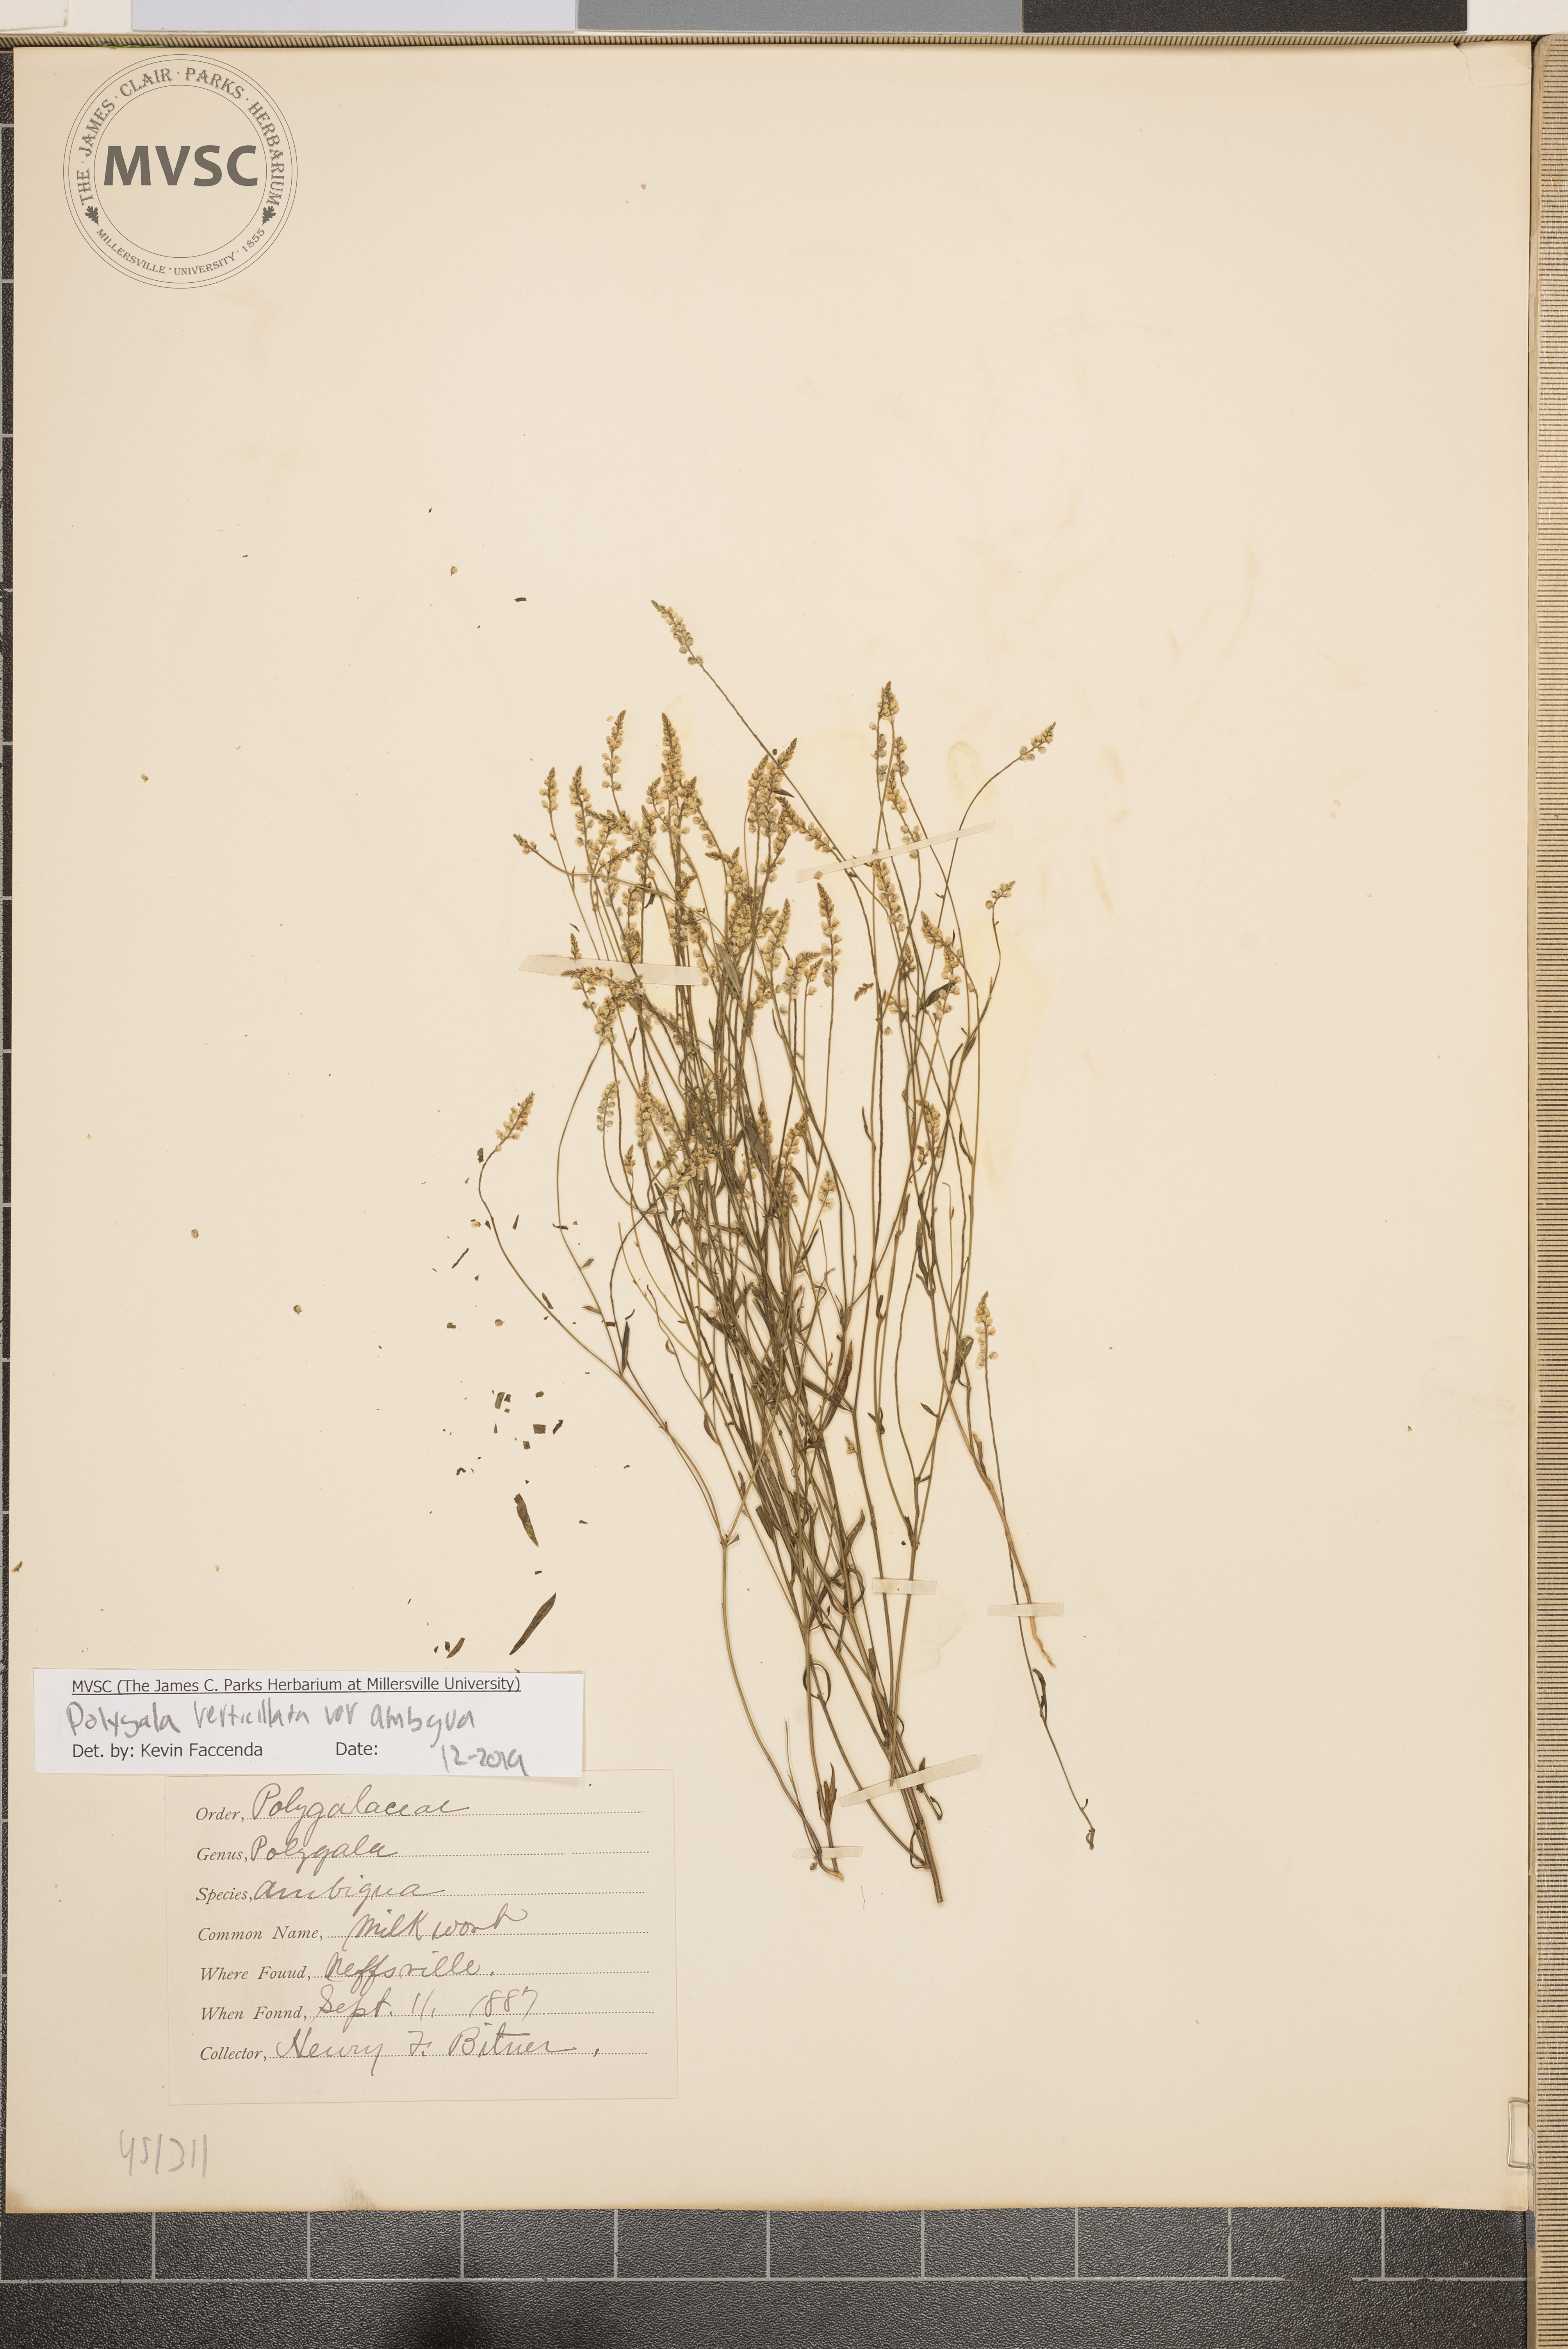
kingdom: Plantae
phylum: Tracheophyta
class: Magnoliopsida
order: Fabales
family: Polygalaceae
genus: Polygala
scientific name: Polygala verticillata
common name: Whorl milkwort
